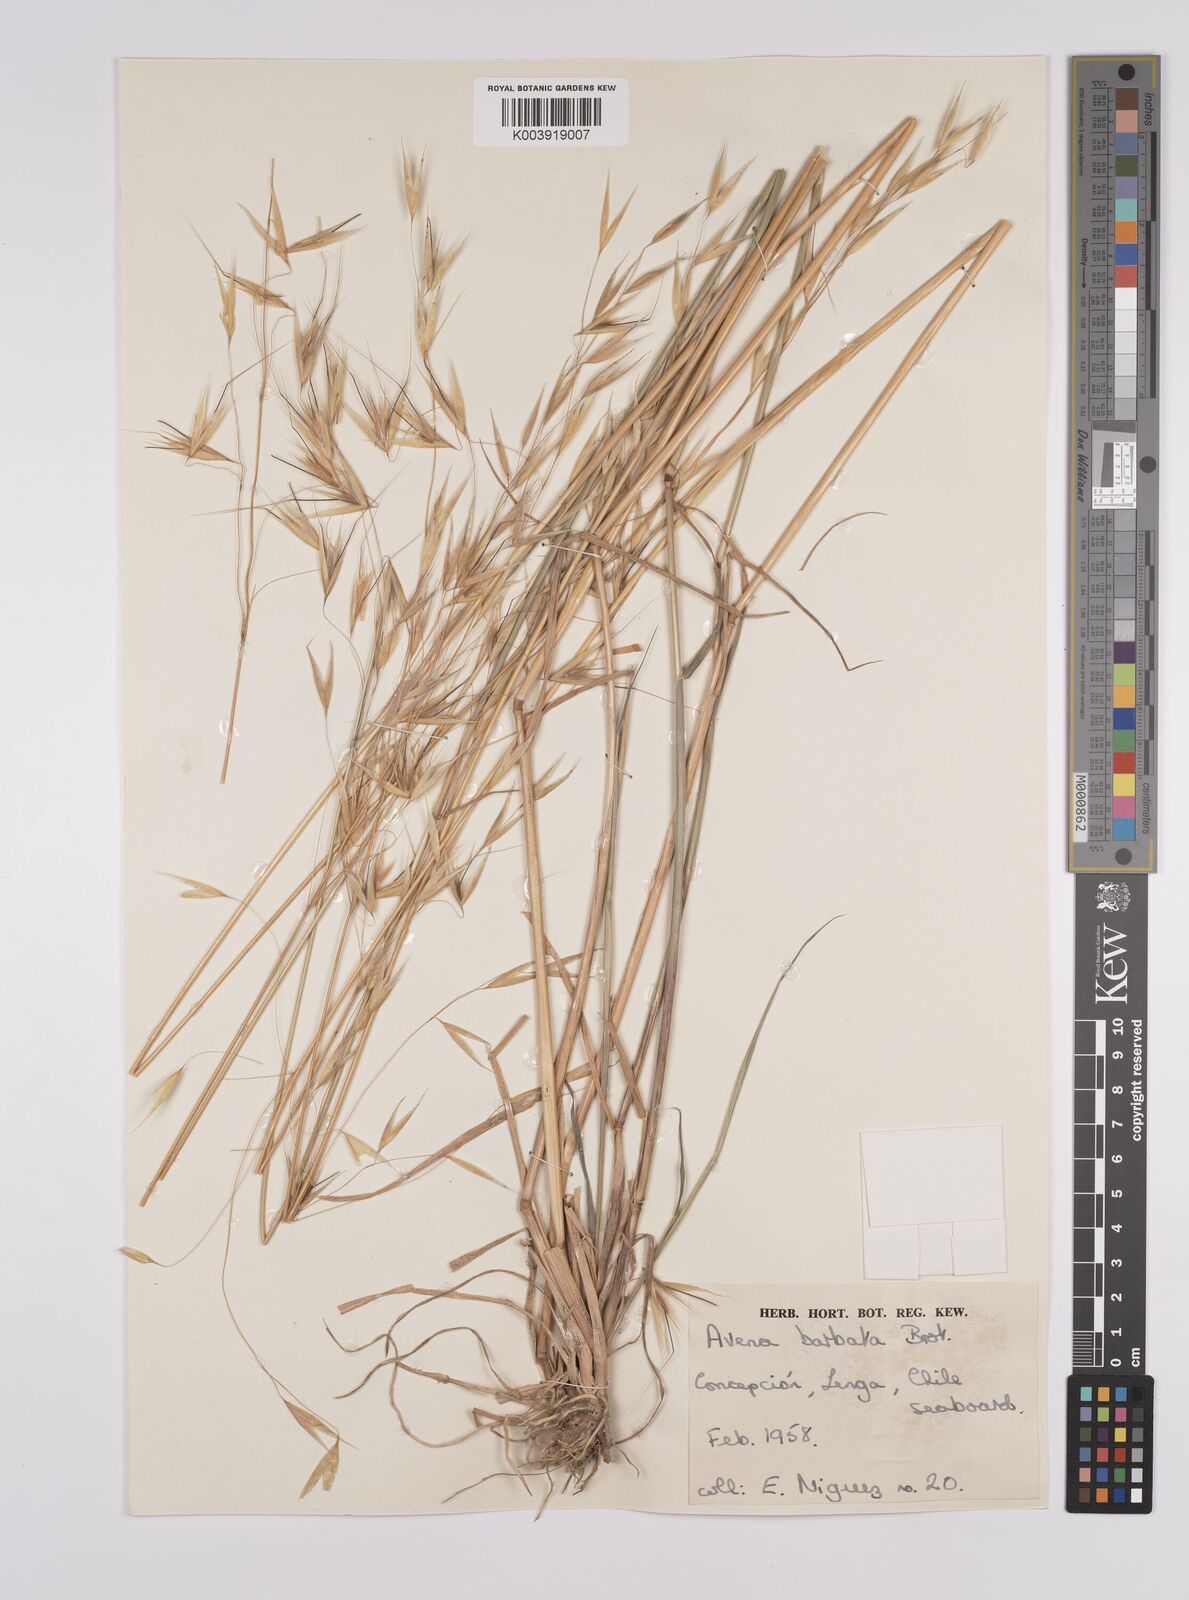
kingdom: Plantae
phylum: Tracheophyta
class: Liliopsida
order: Poales
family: Poaceae
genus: Avena
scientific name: Avena
